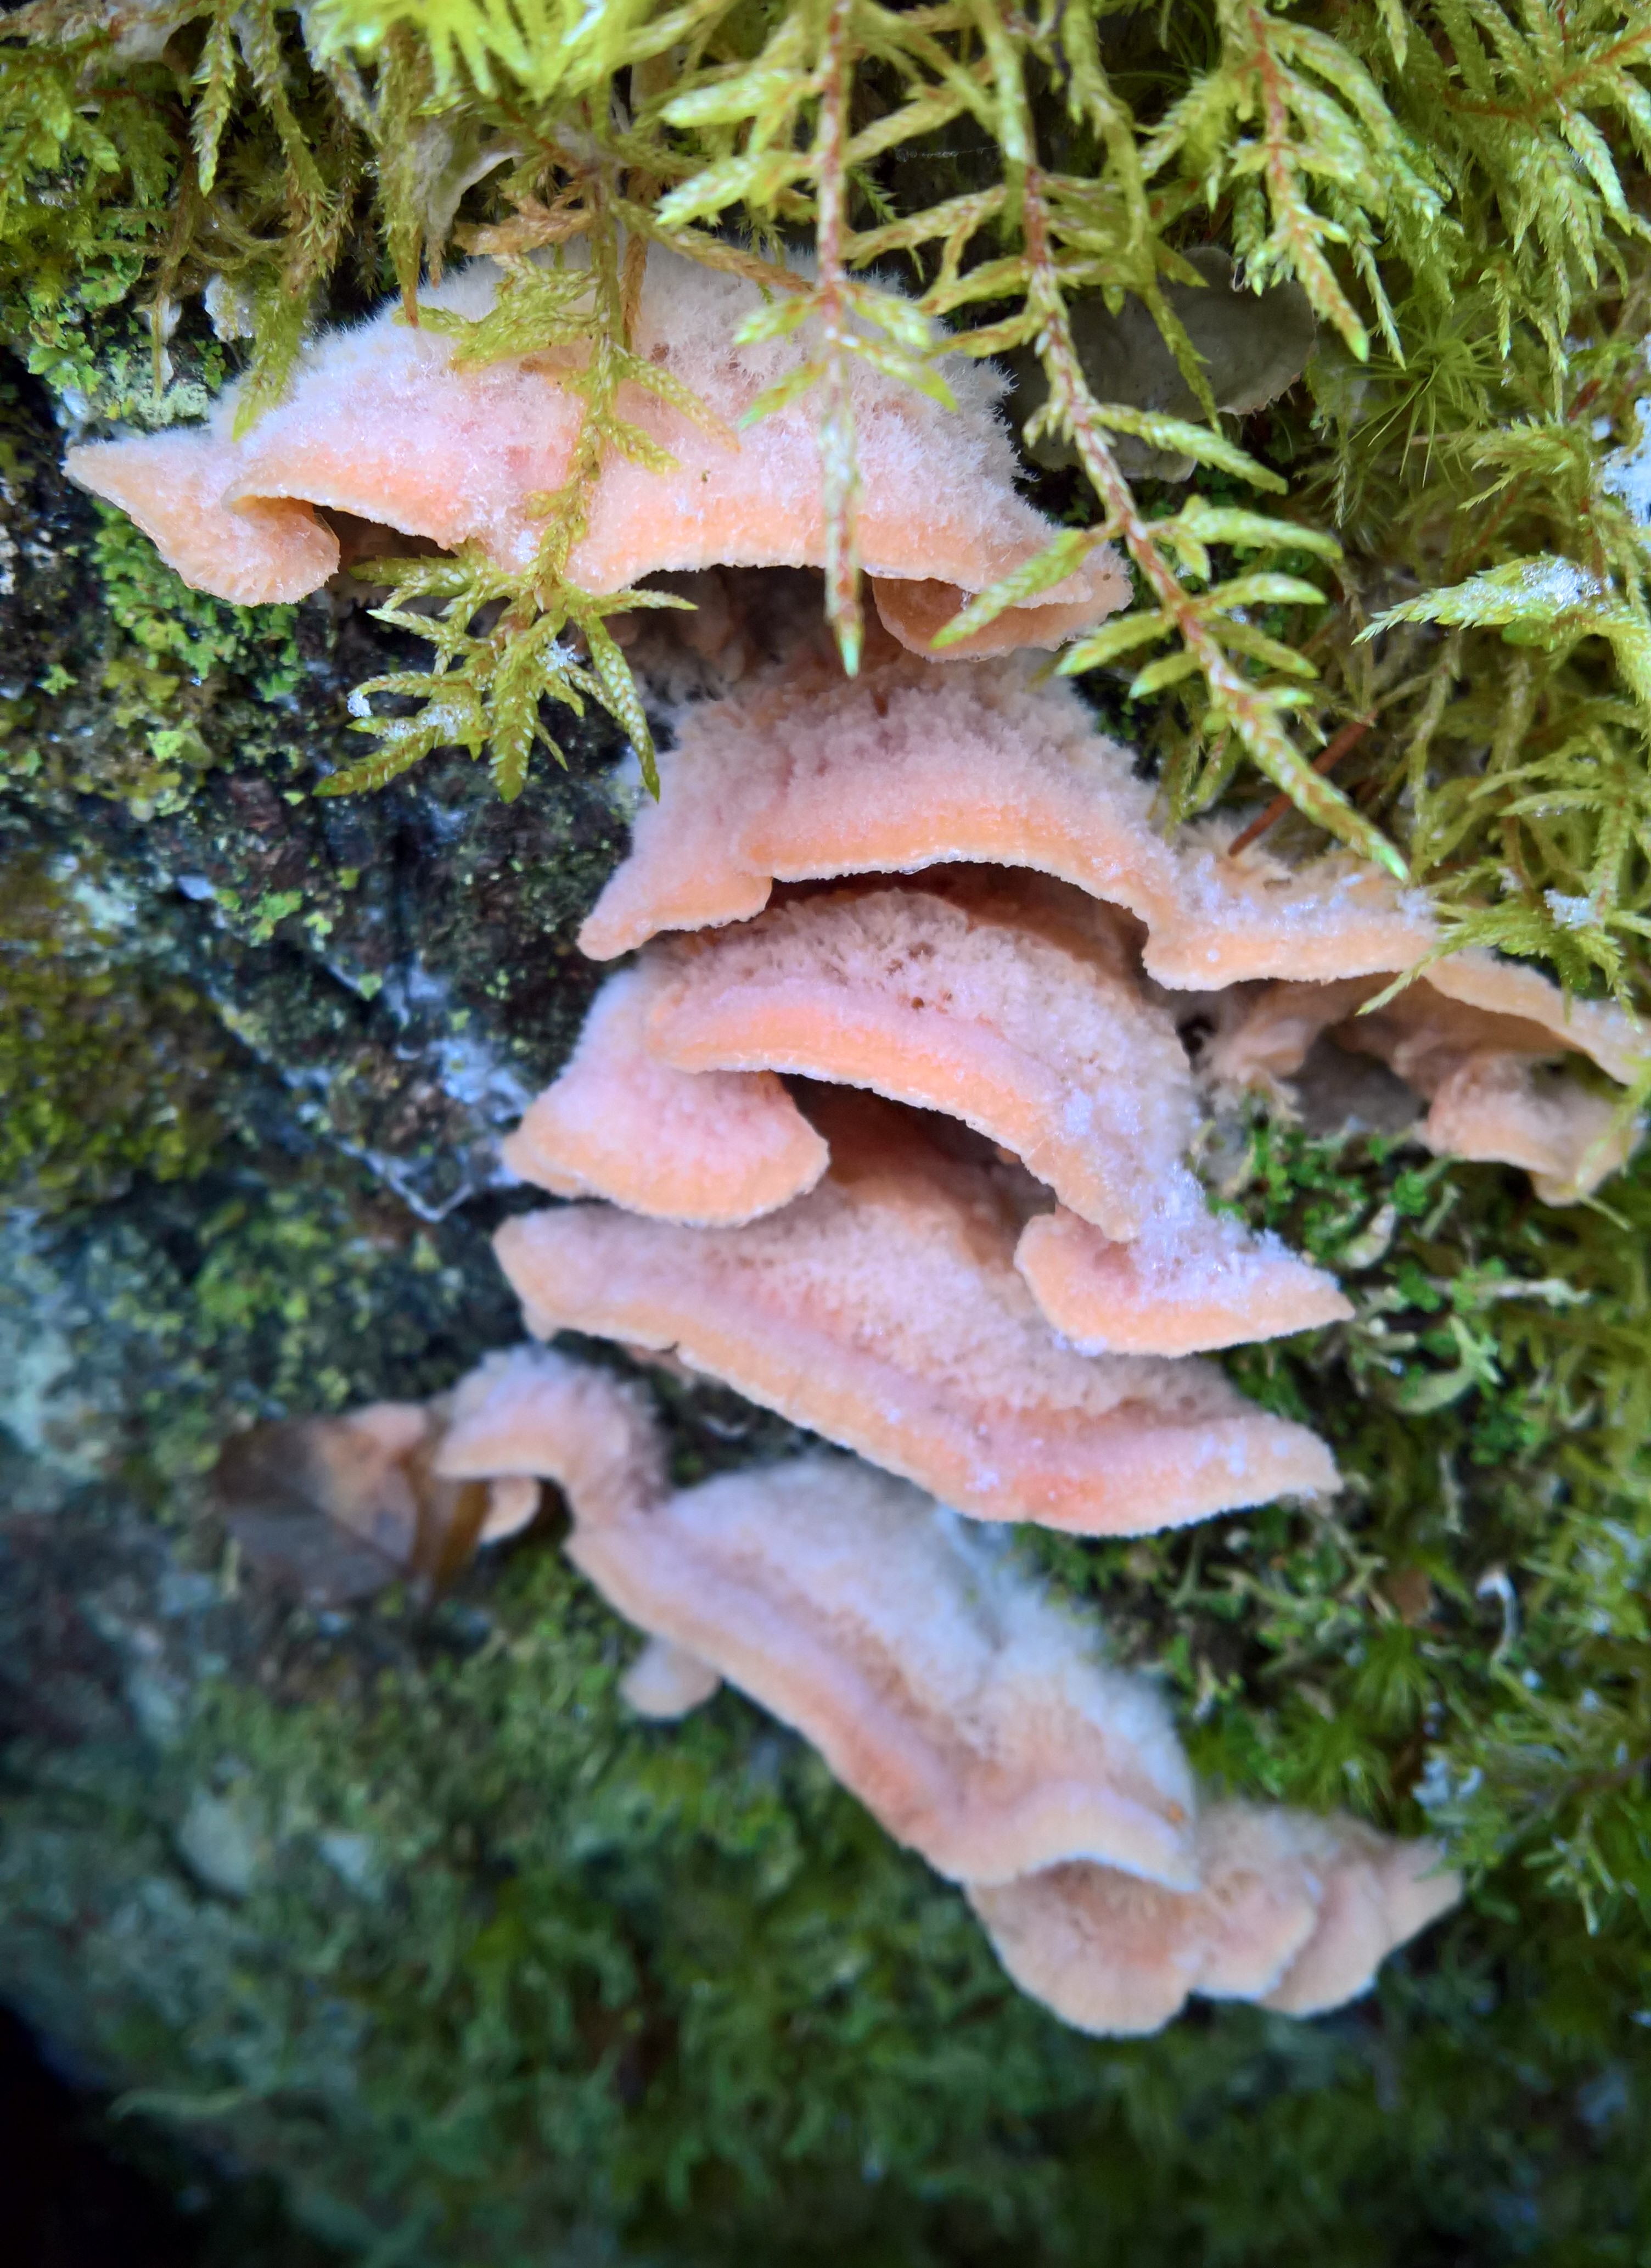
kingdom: Fungi
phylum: Basidiomycota
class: Agaricomycetes
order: Polyporales
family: Meruliaceae
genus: Phlebia
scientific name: Phlebia tremellosa
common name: Jelly rot
